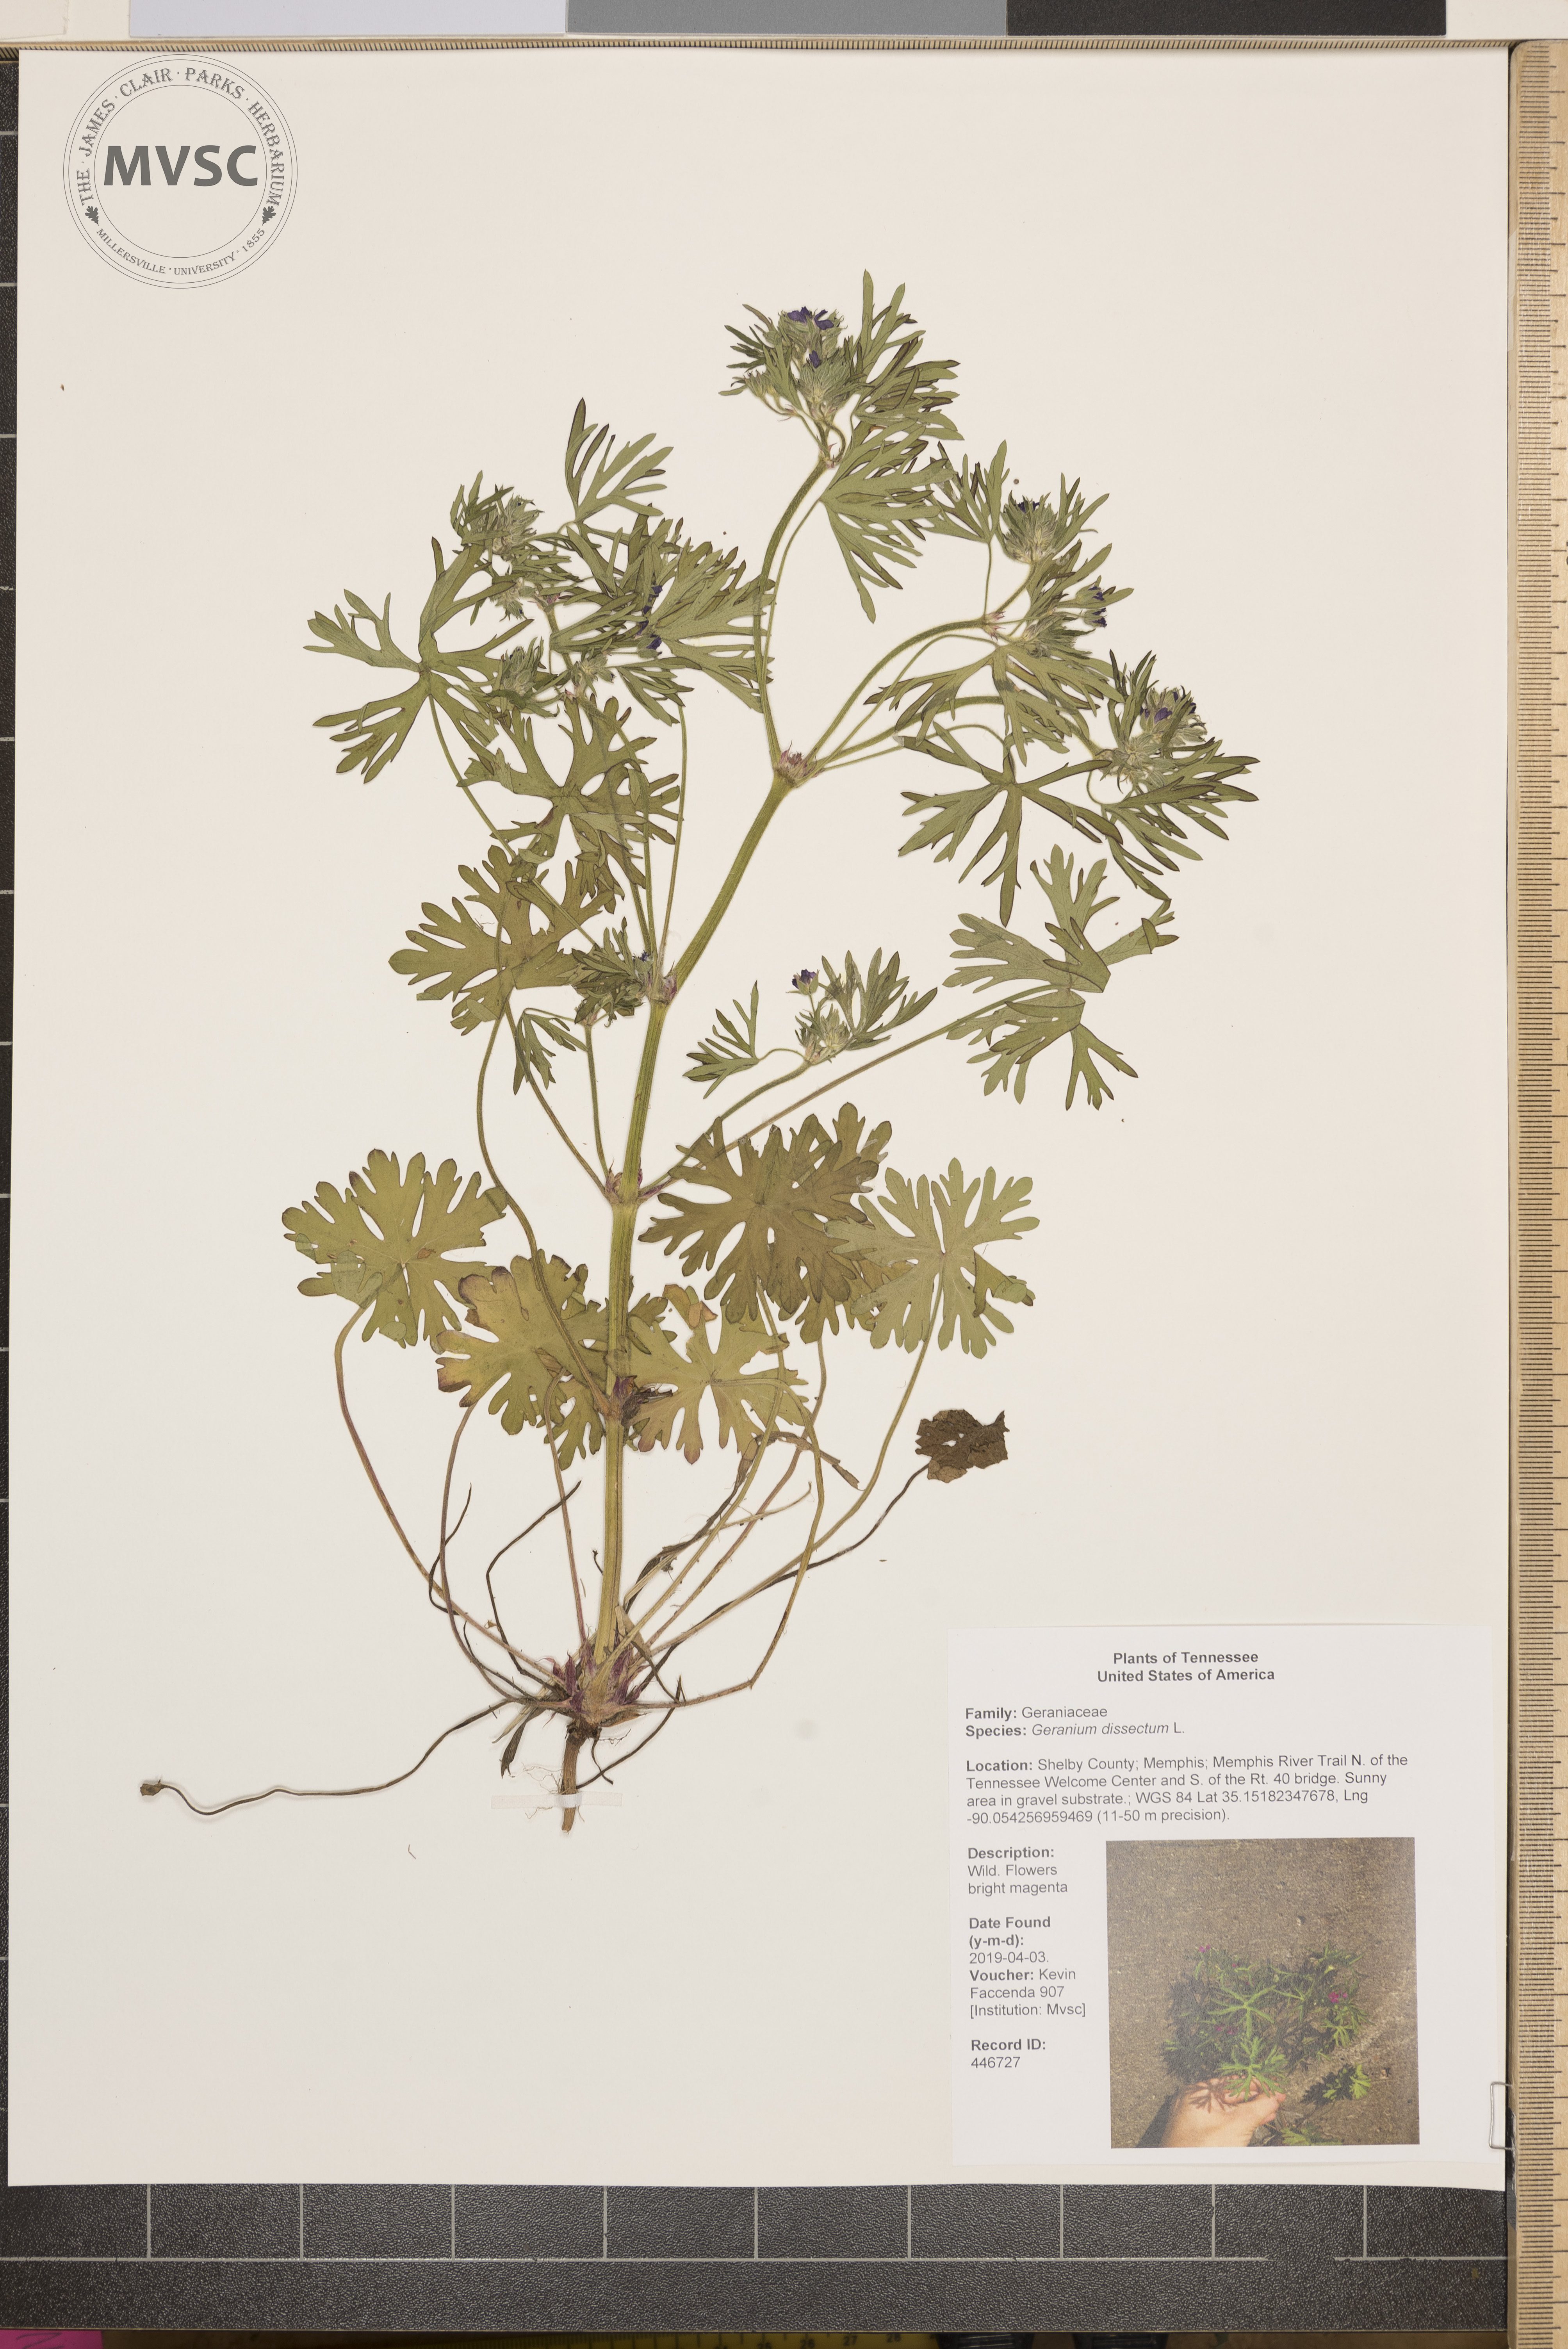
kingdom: Plantae
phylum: Tracheophyta
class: Magnoliopsida
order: Geraniales
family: Geraniaceae
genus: Geranium
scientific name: Geranium dissectum
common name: Cut-leaved crane's-bill
